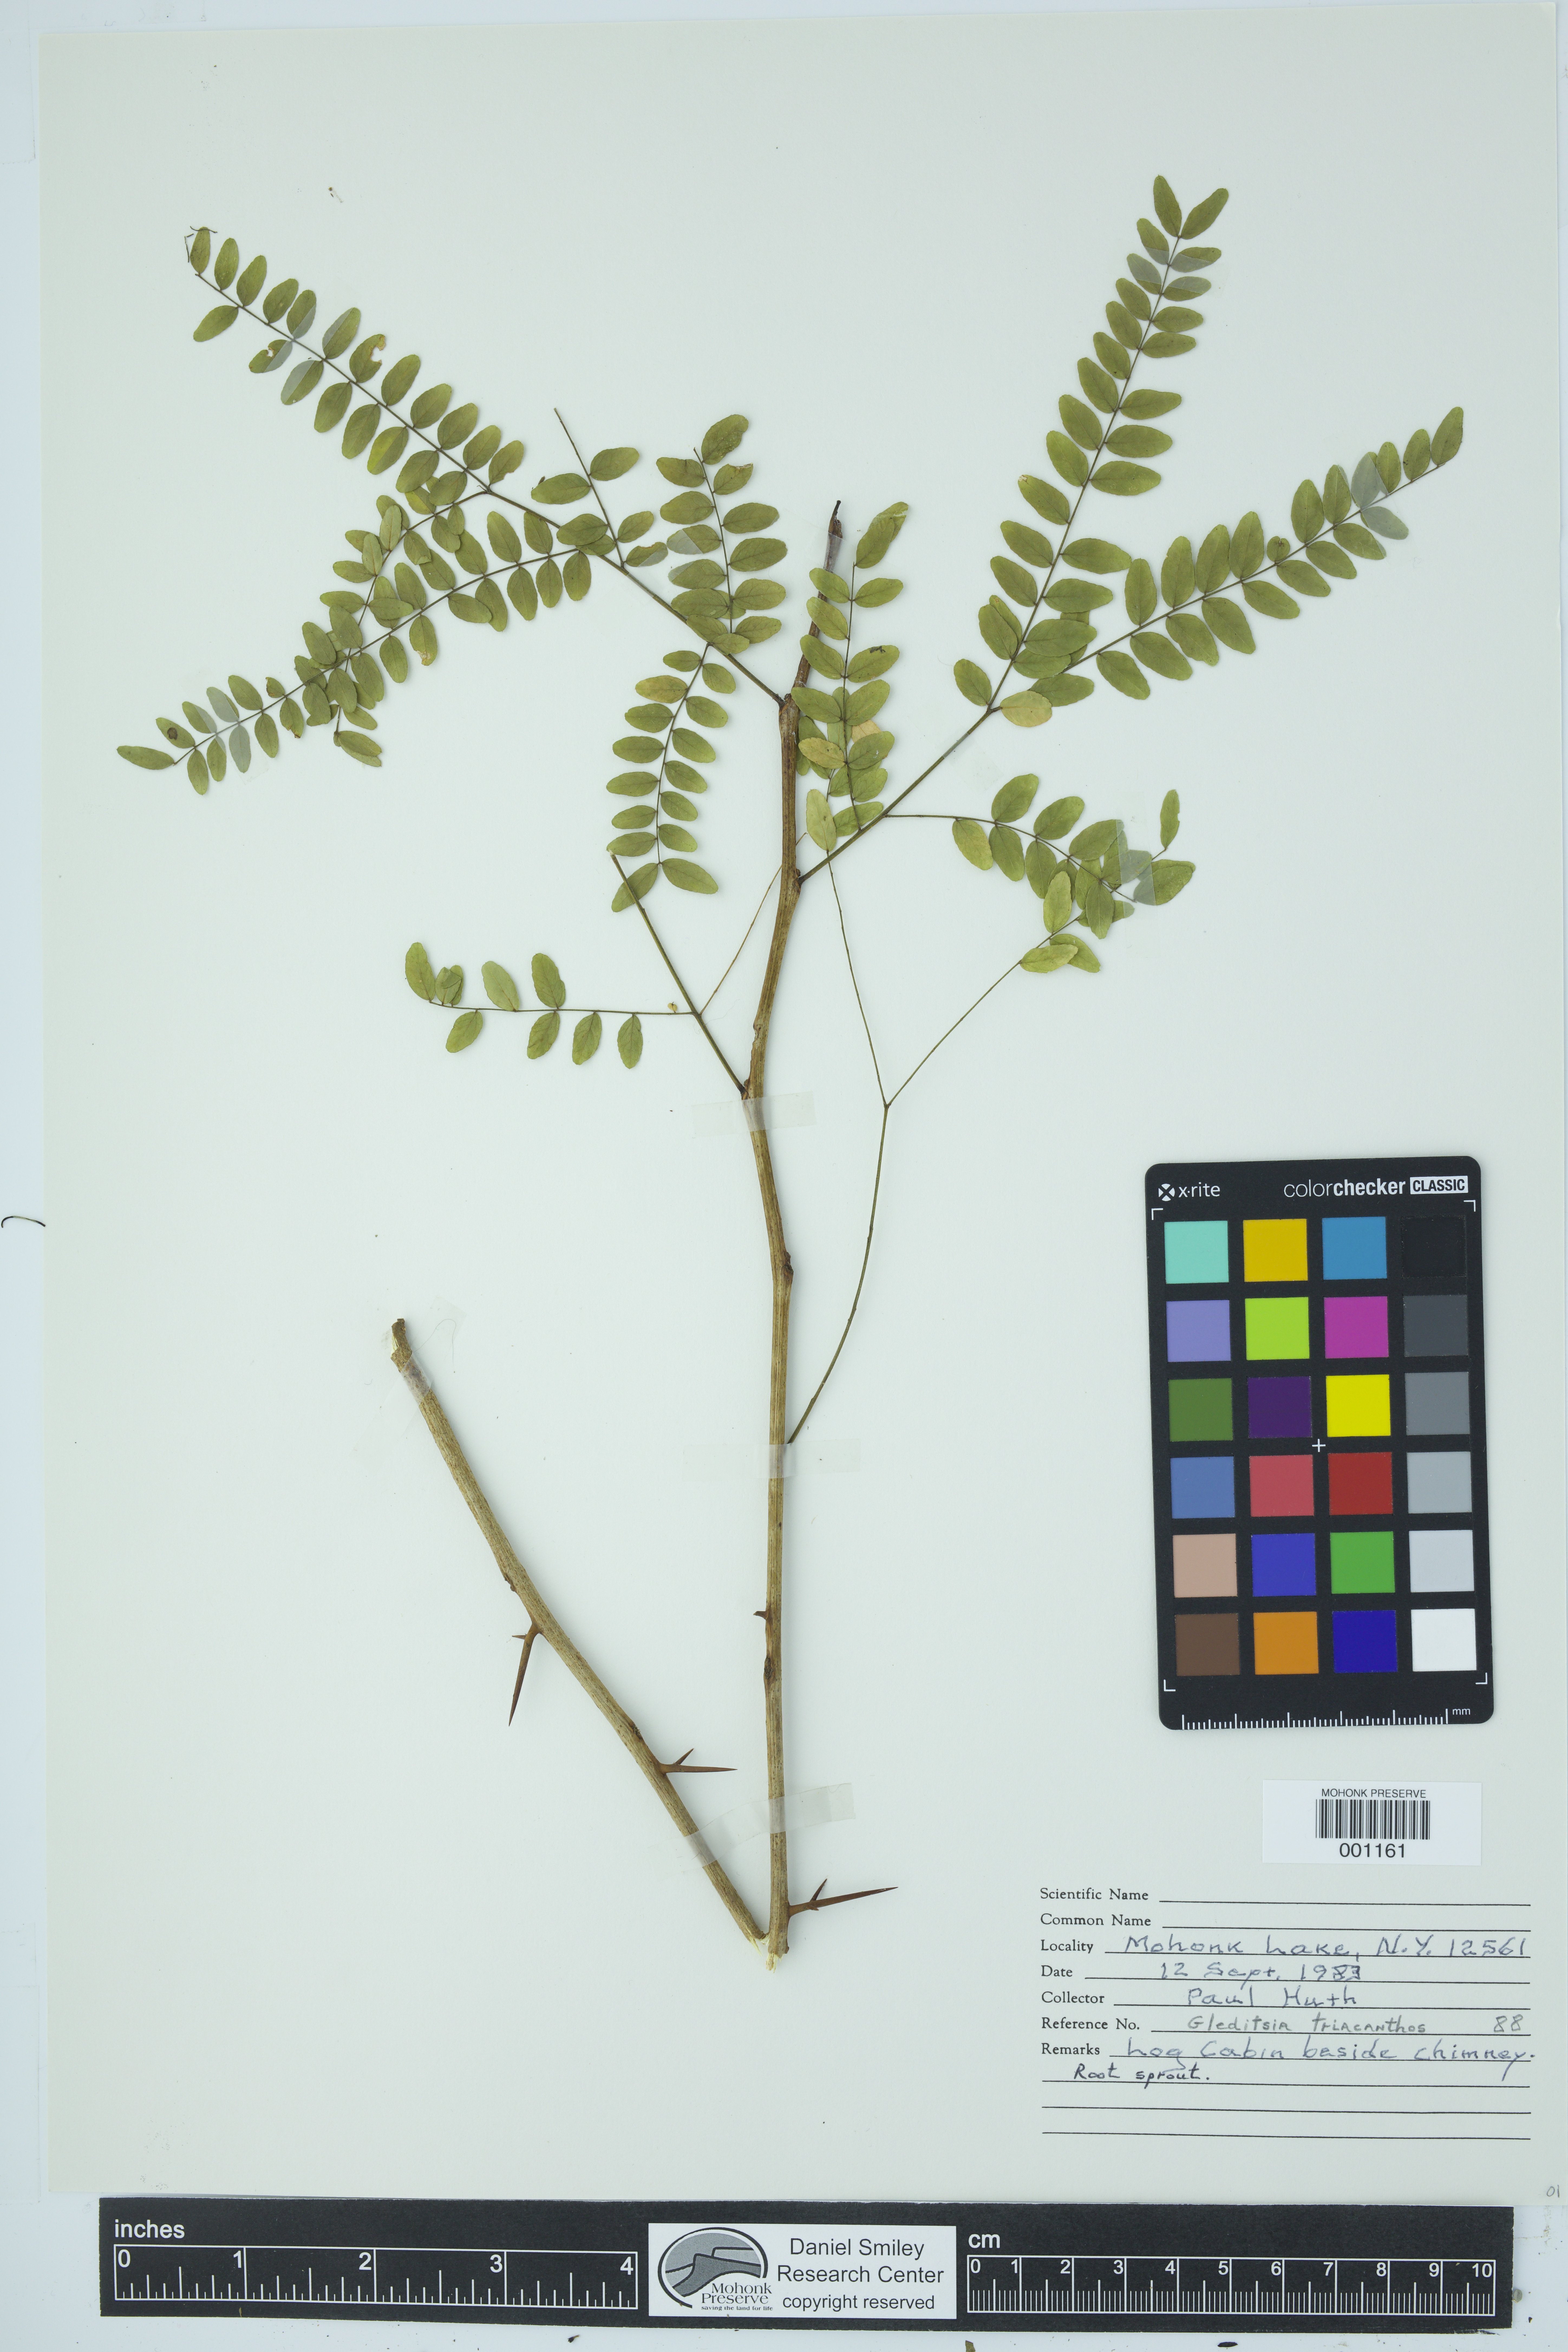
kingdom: Plantae
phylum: Tracheophyta
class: Magnoliopsida
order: Fabales
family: Fabaceae
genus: Gleditsia
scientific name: Gleditsia triacanthos
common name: Common honeylocust
